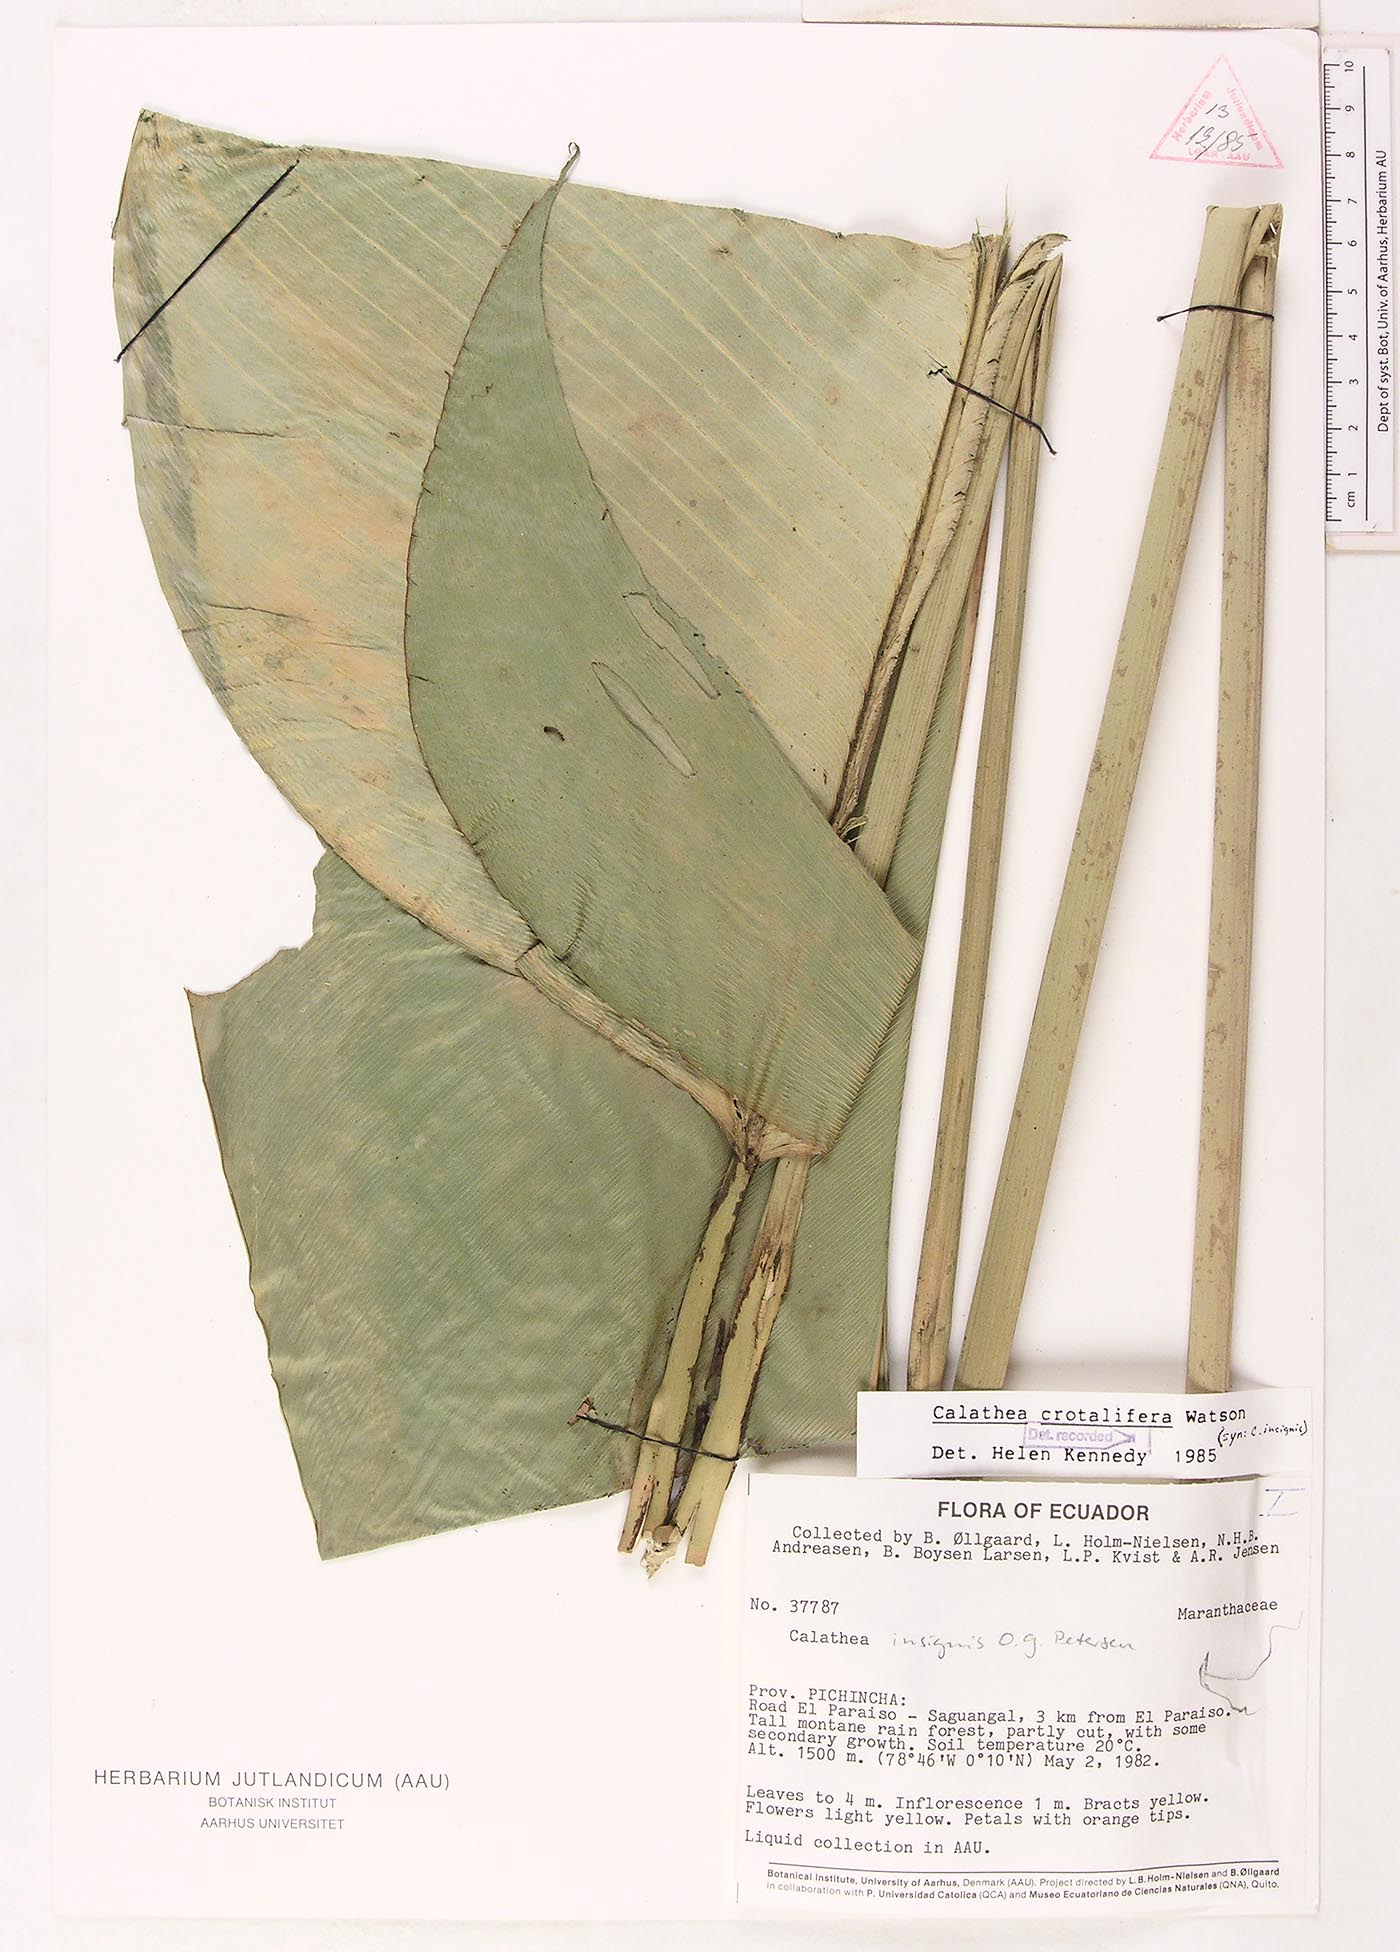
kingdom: Plantae
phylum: Tracheophyta
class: Liliopsida
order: Zingiberales
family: Marantaceae
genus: Calathea
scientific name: Calathea crotalifera
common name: Rattlesnake plant
